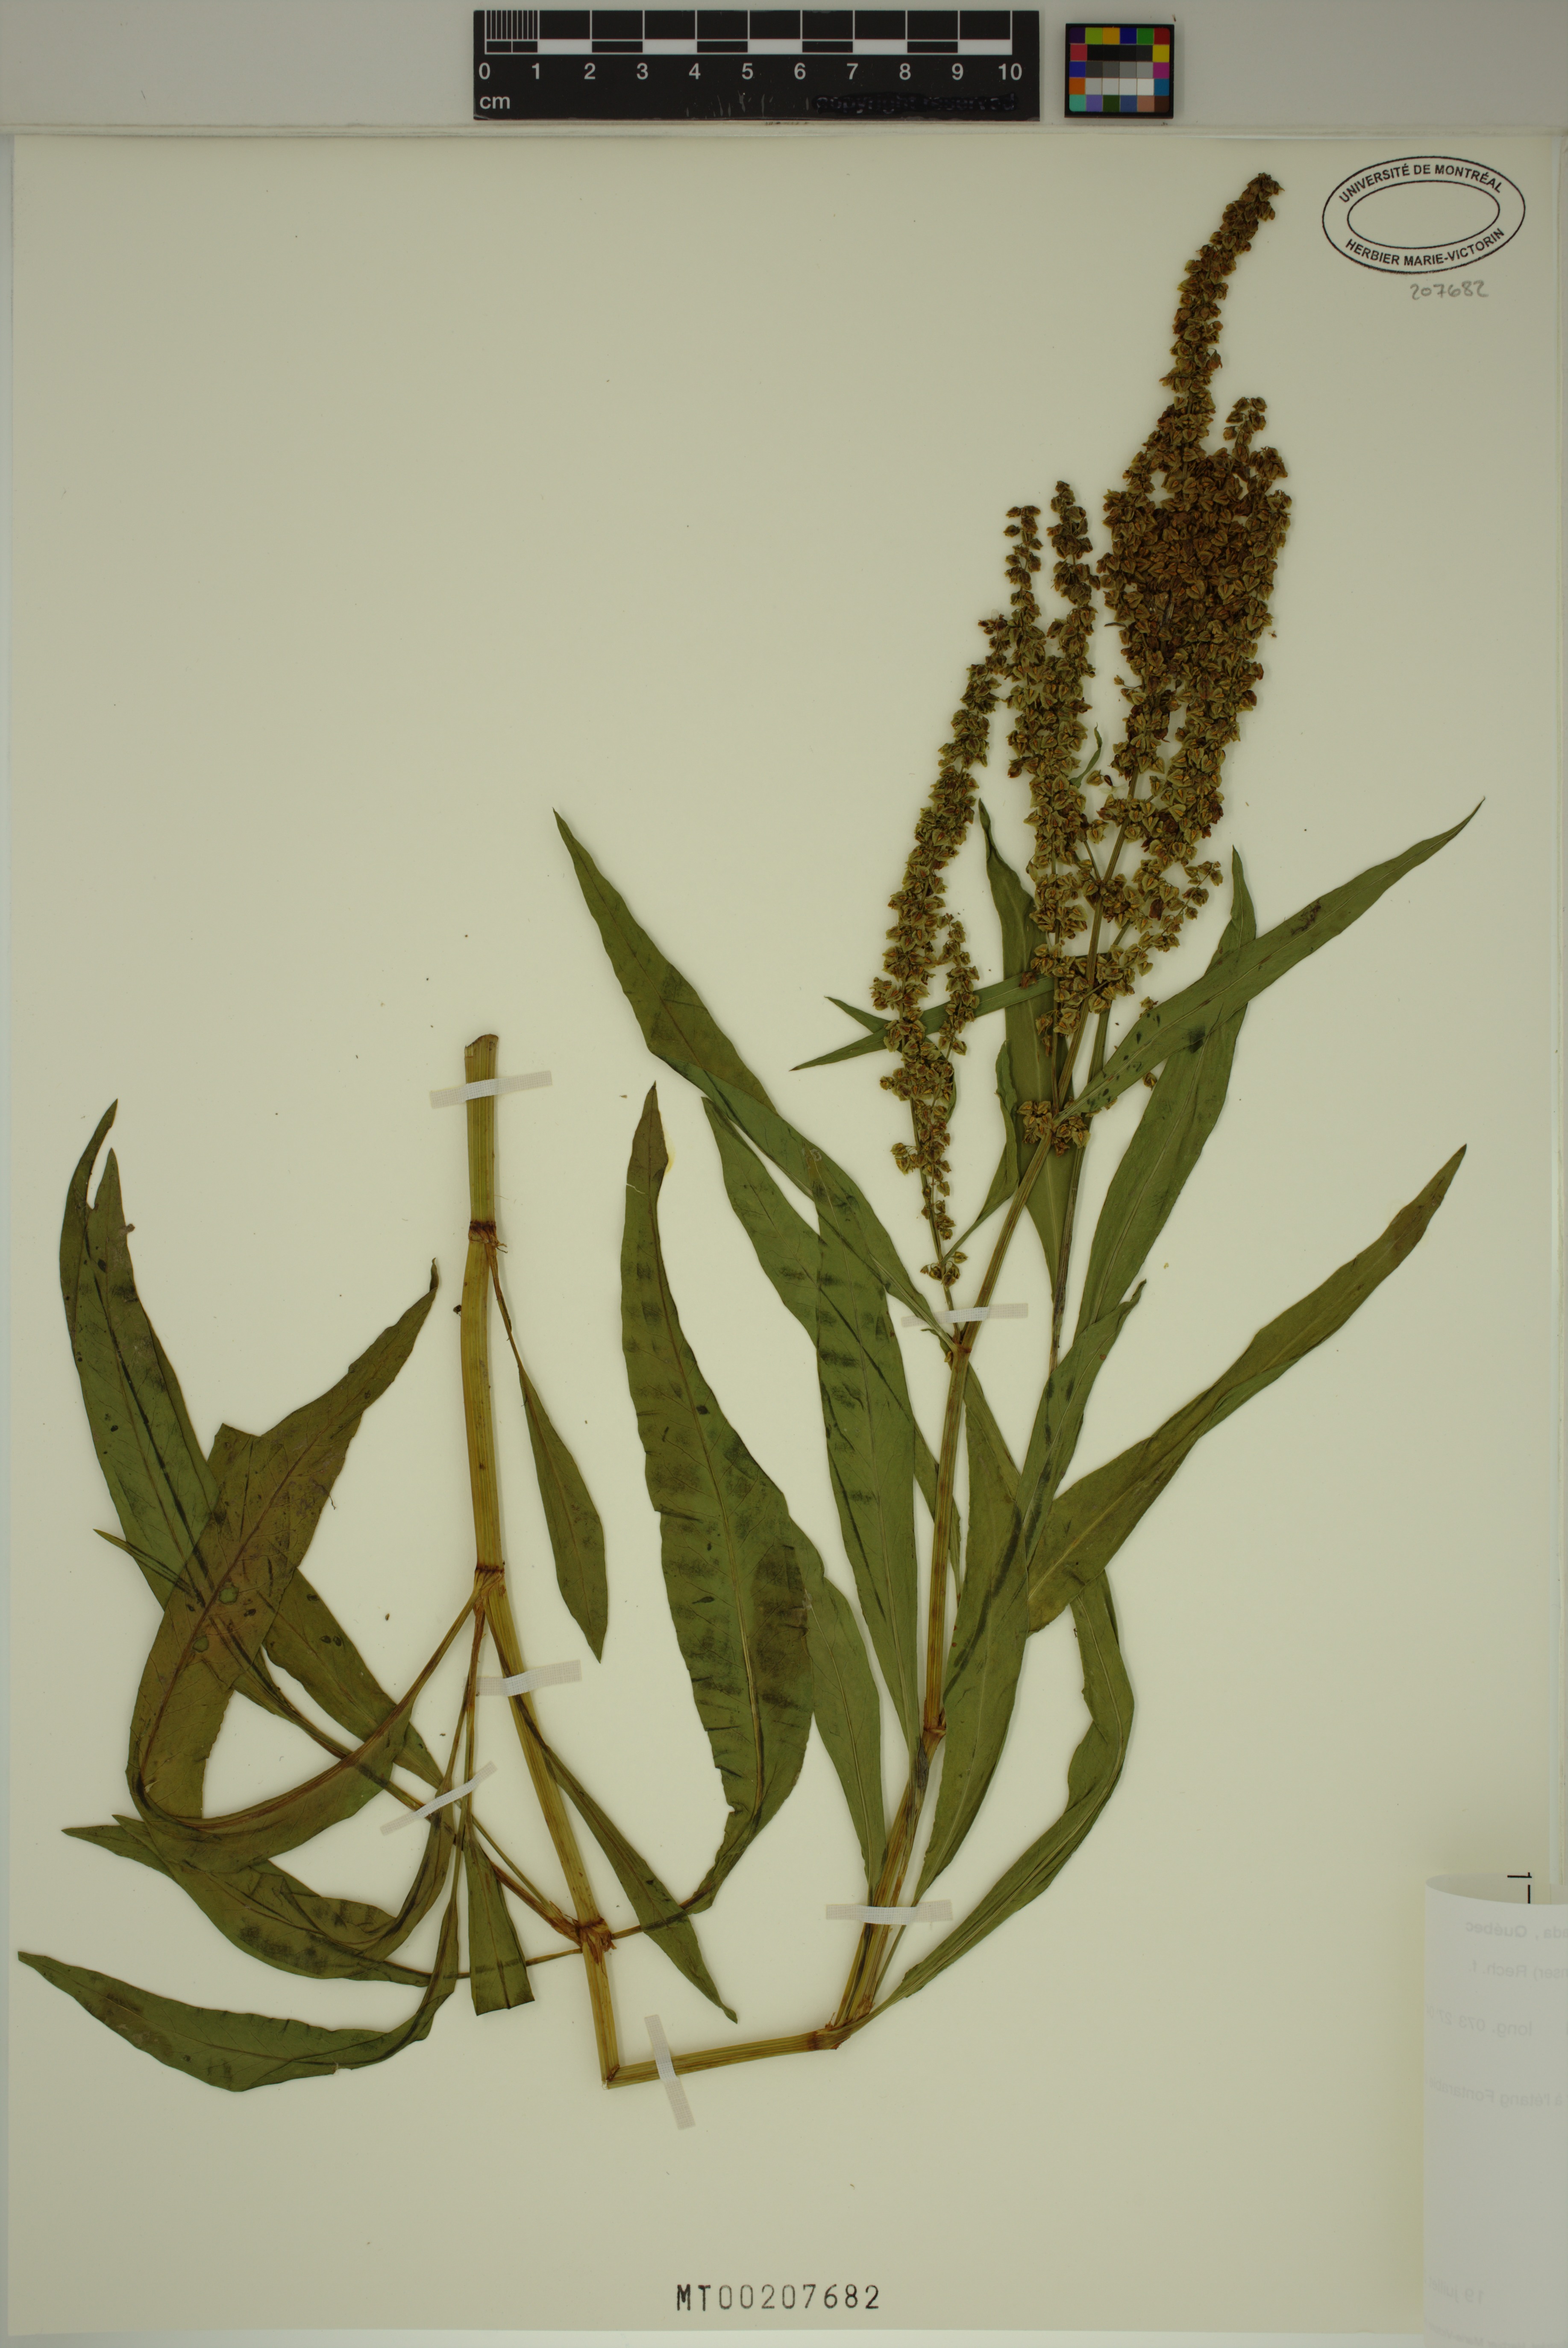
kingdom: Plantae
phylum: Tracheophyta
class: Magnoliopsida
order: Caryophyllales
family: Polygonaceae
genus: Rumex
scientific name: Rumex triangulivalvis
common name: Triangular-valve dock
